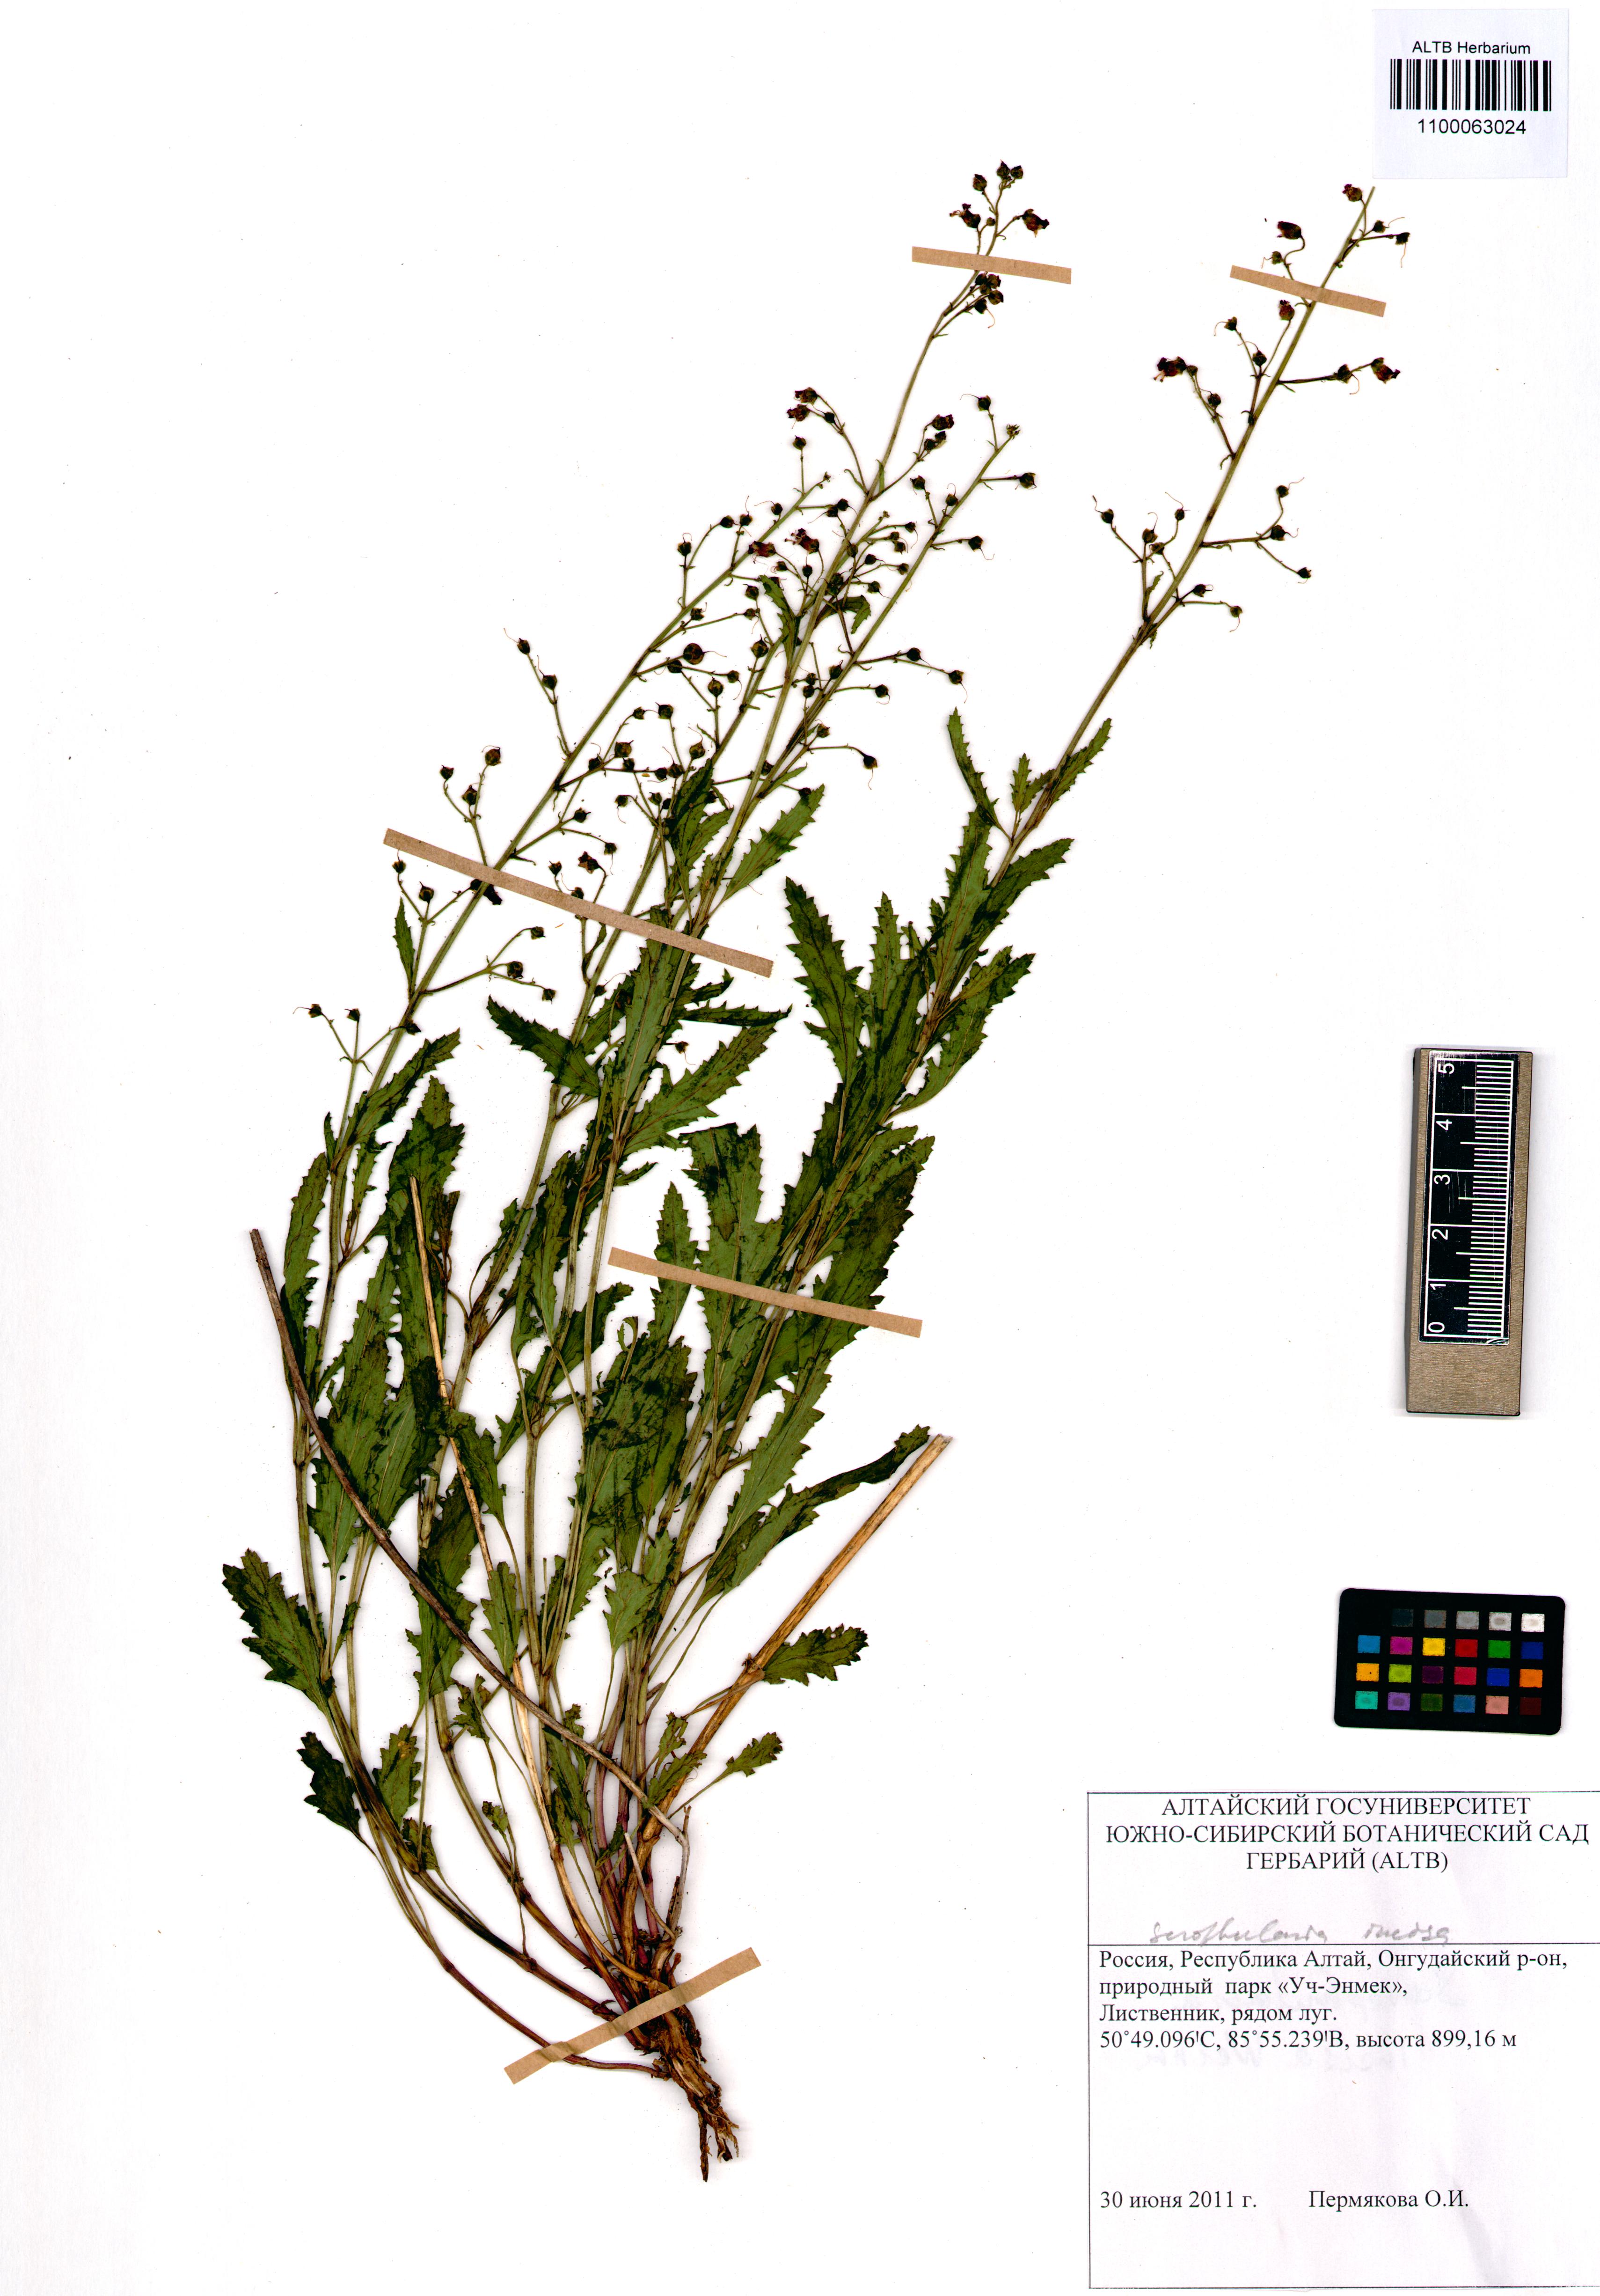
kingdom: Plantae
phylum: Tracheophyta
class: Magnoliopsida
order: Lamiales
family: Scrophulariaceae
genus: Scrophularia
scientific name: Scrophularia incisa
